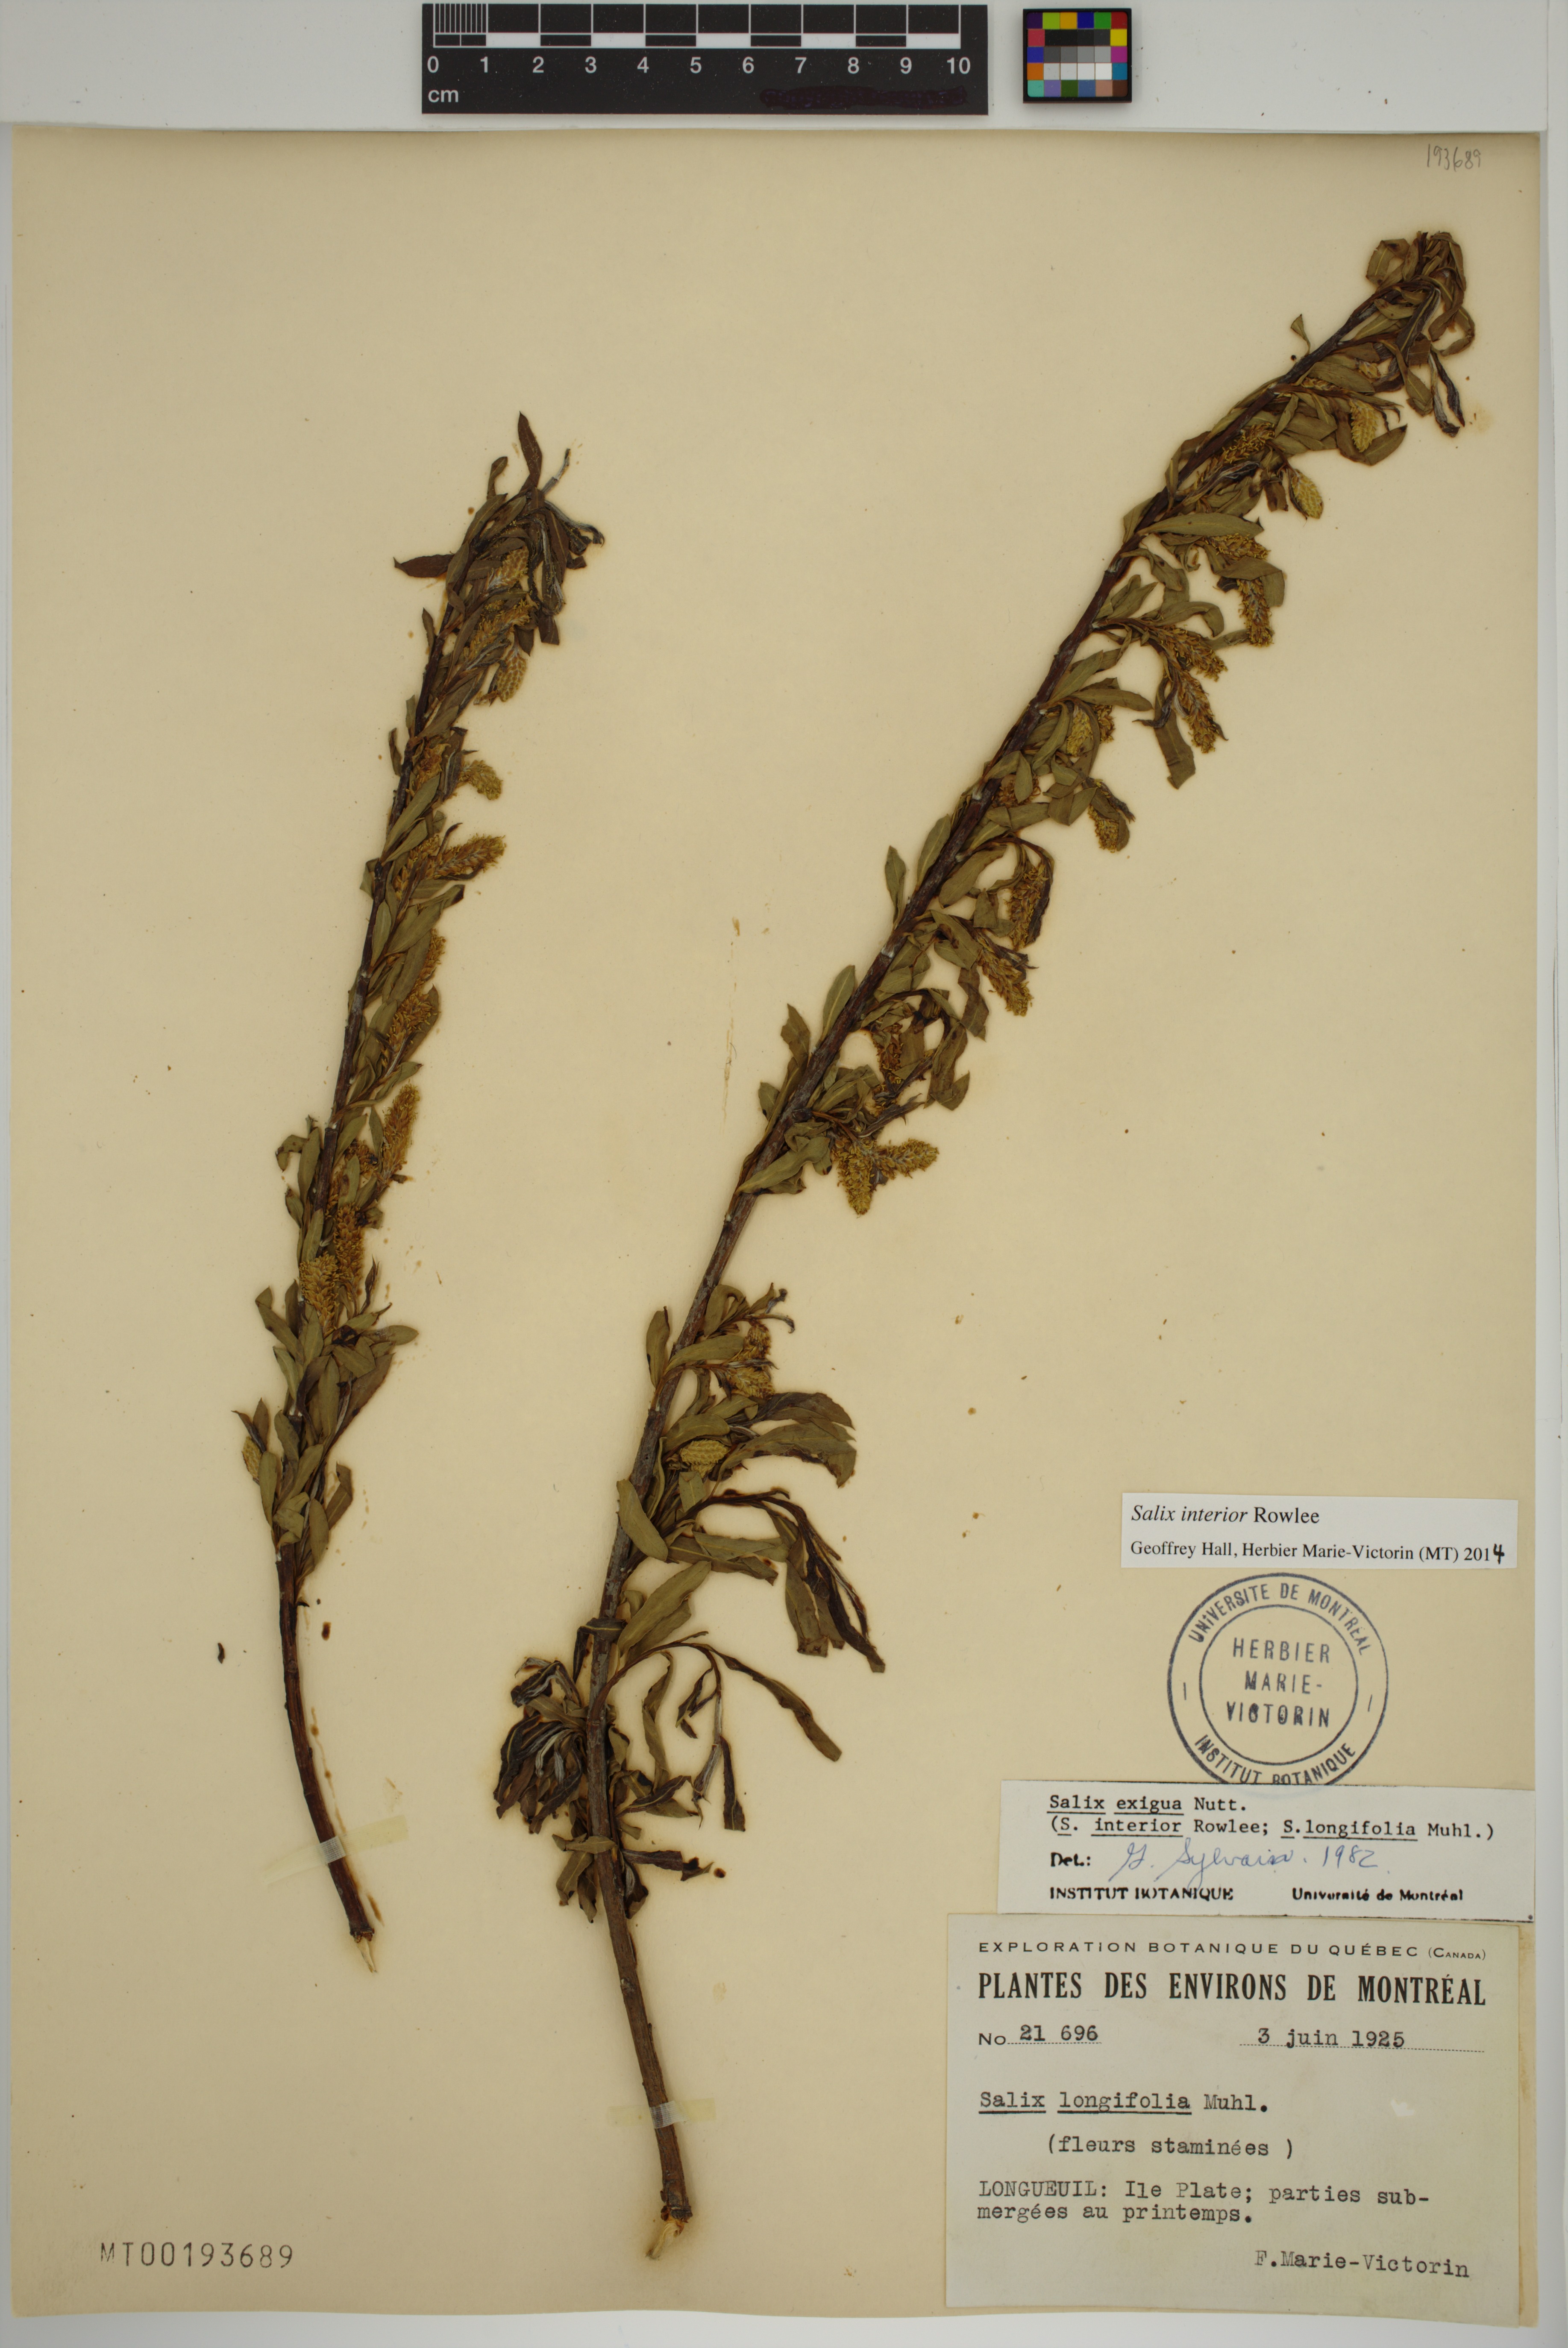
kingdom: Plantae
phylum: Tracheophyta
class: Magnoliopsida
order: Malpighiales
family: Salicaceae
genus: Salix
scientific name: Salix interior
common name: Sandbar willow
